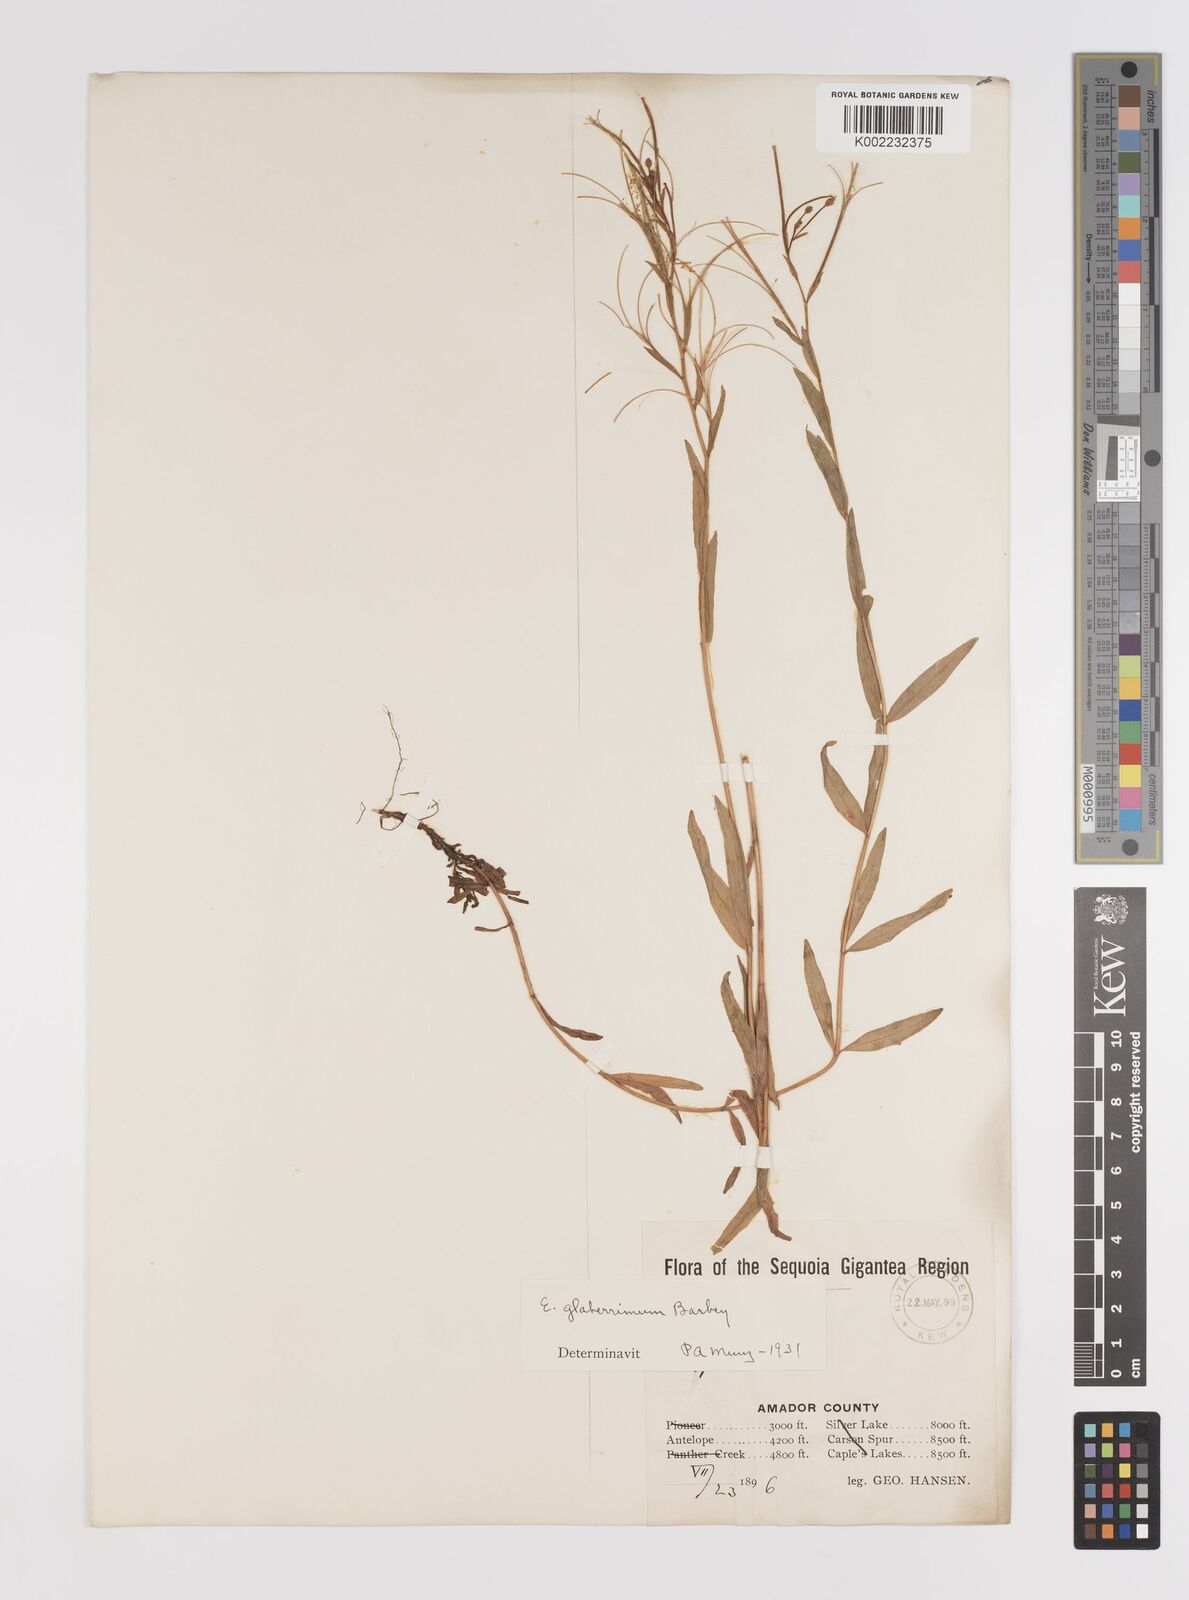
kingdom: Plantae
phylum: Tracheophyta
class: Magnoliopsida
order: Myrtales
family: Onagraceae
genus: Epilobium
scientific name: Epilobium glaberrimum
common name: Glaucous willowherb
